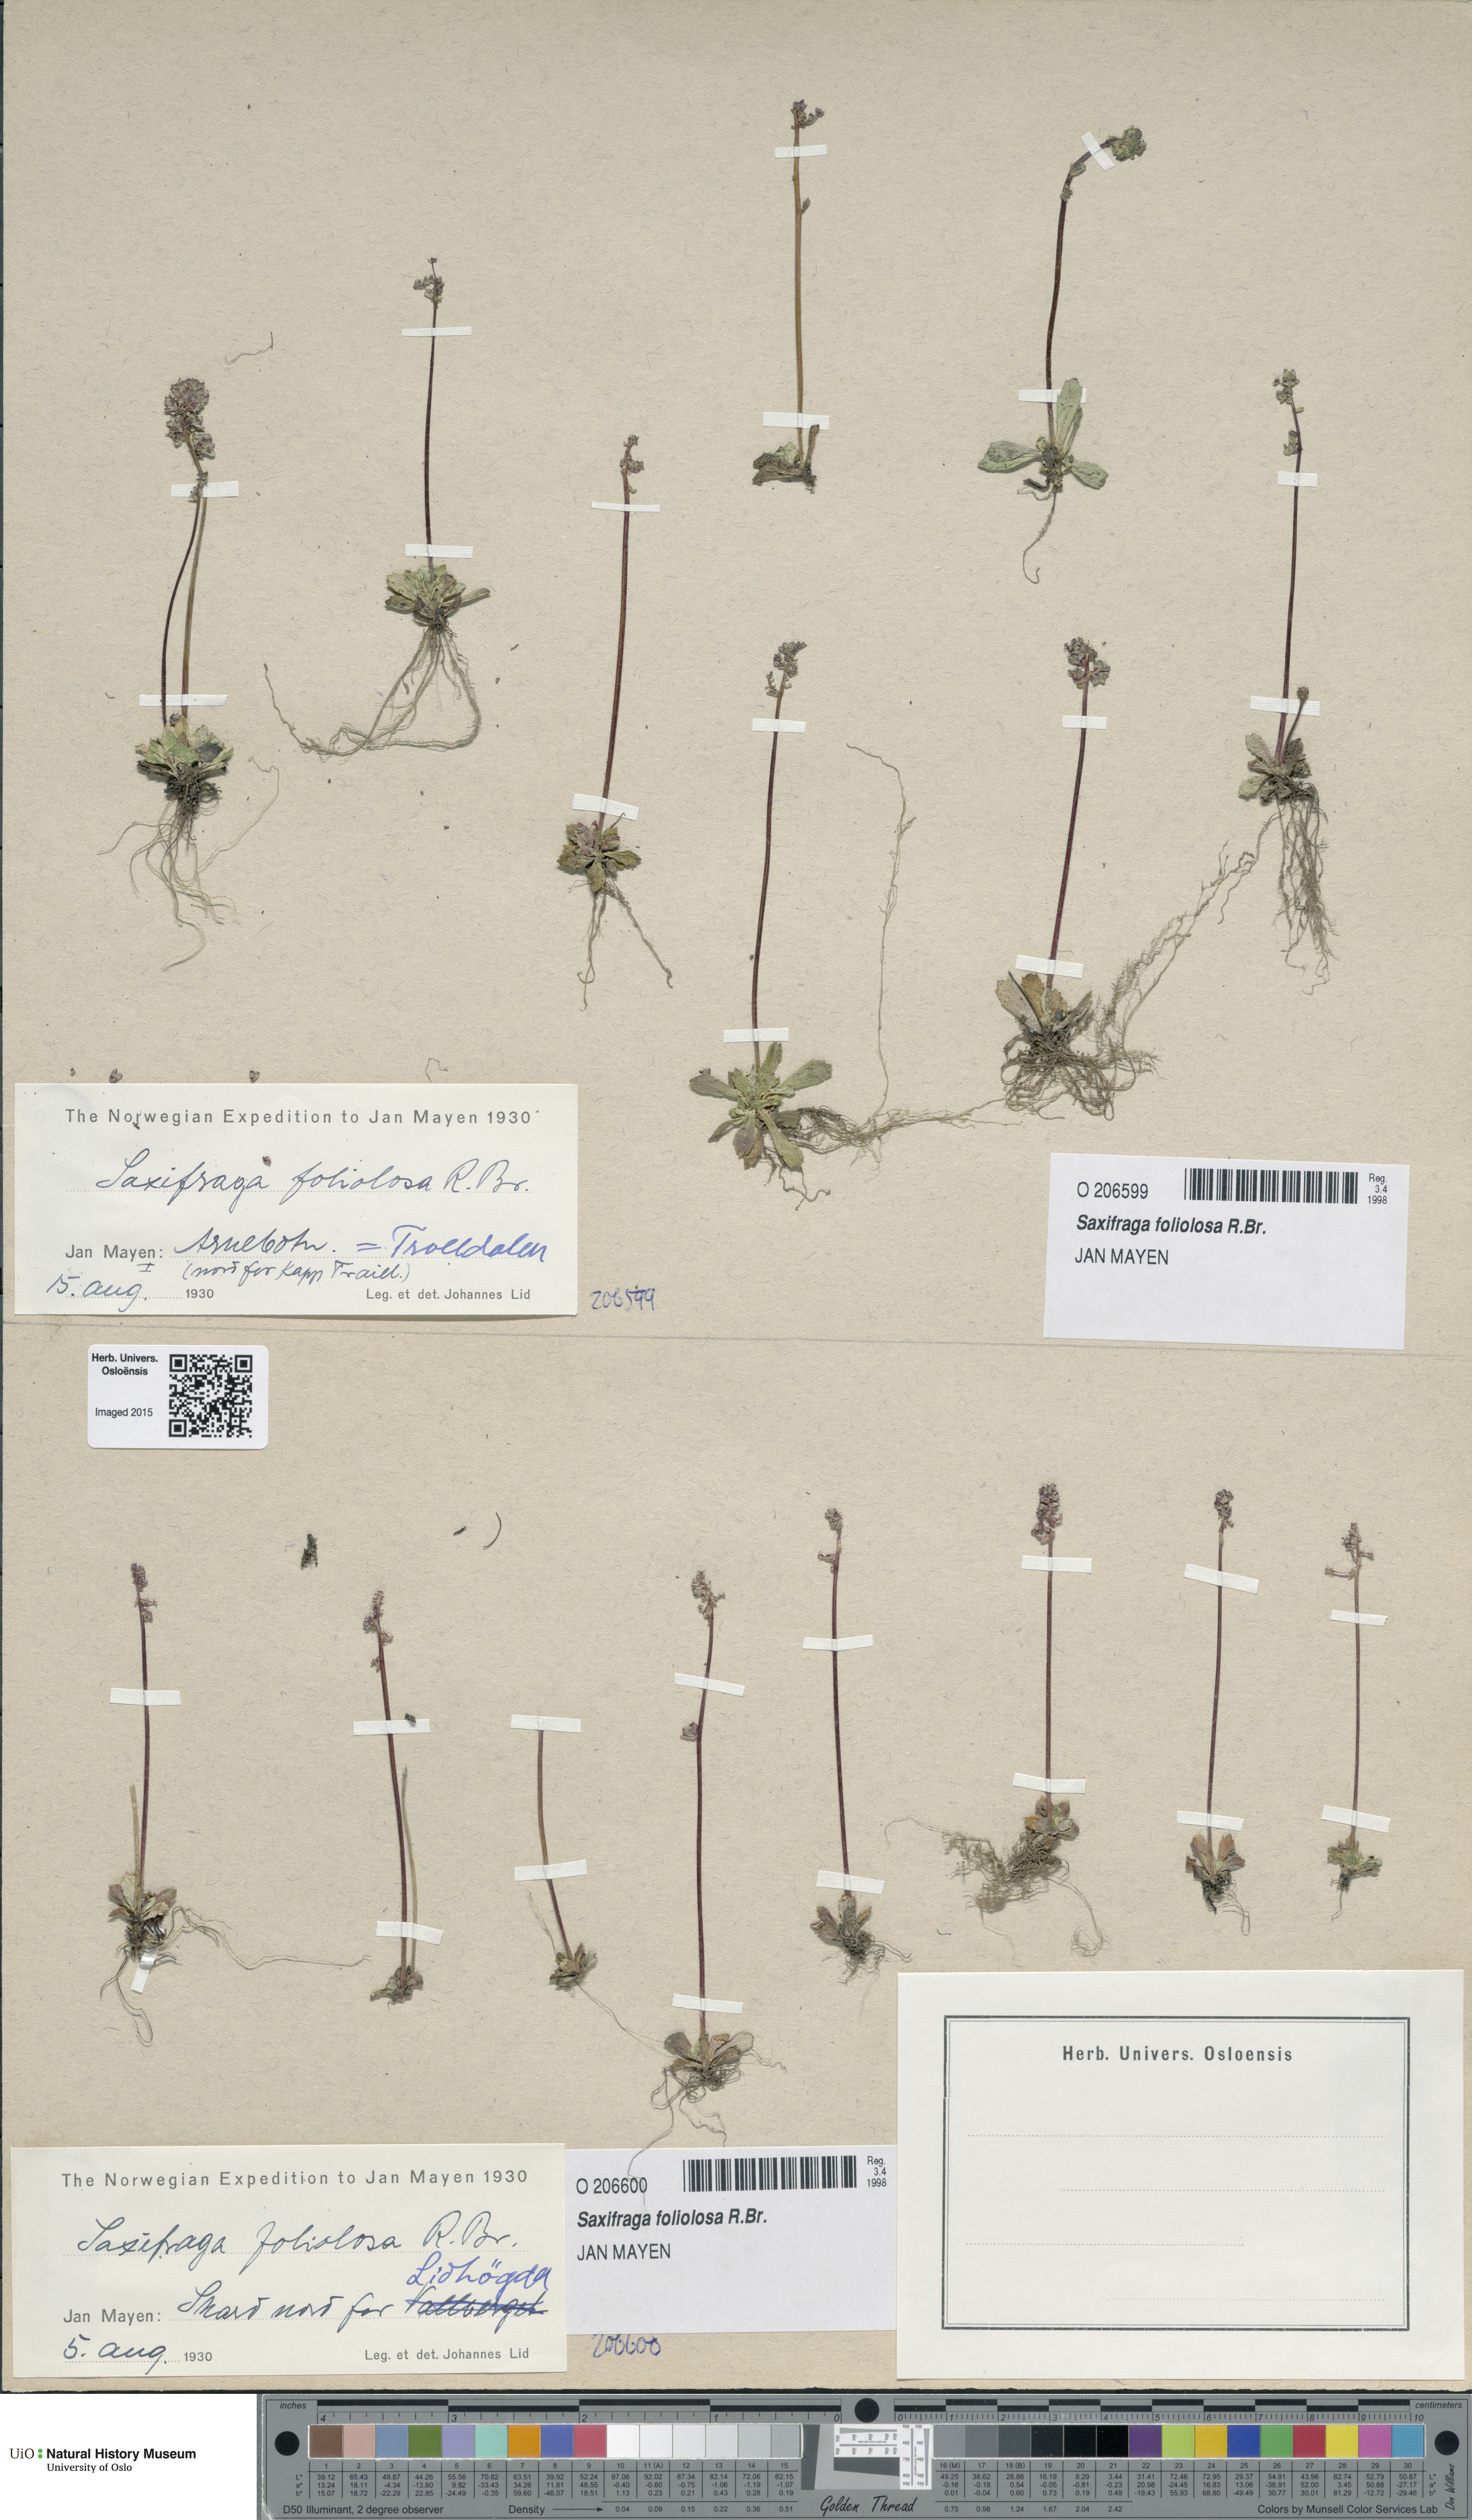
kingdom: Plantae
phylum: Tracheophyta
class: Magnoliopsida
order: Saxifragales
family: Saxifragaceae
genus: Micranthes
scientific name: Micranthes foliolosa
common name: Leafystem saxifrage
